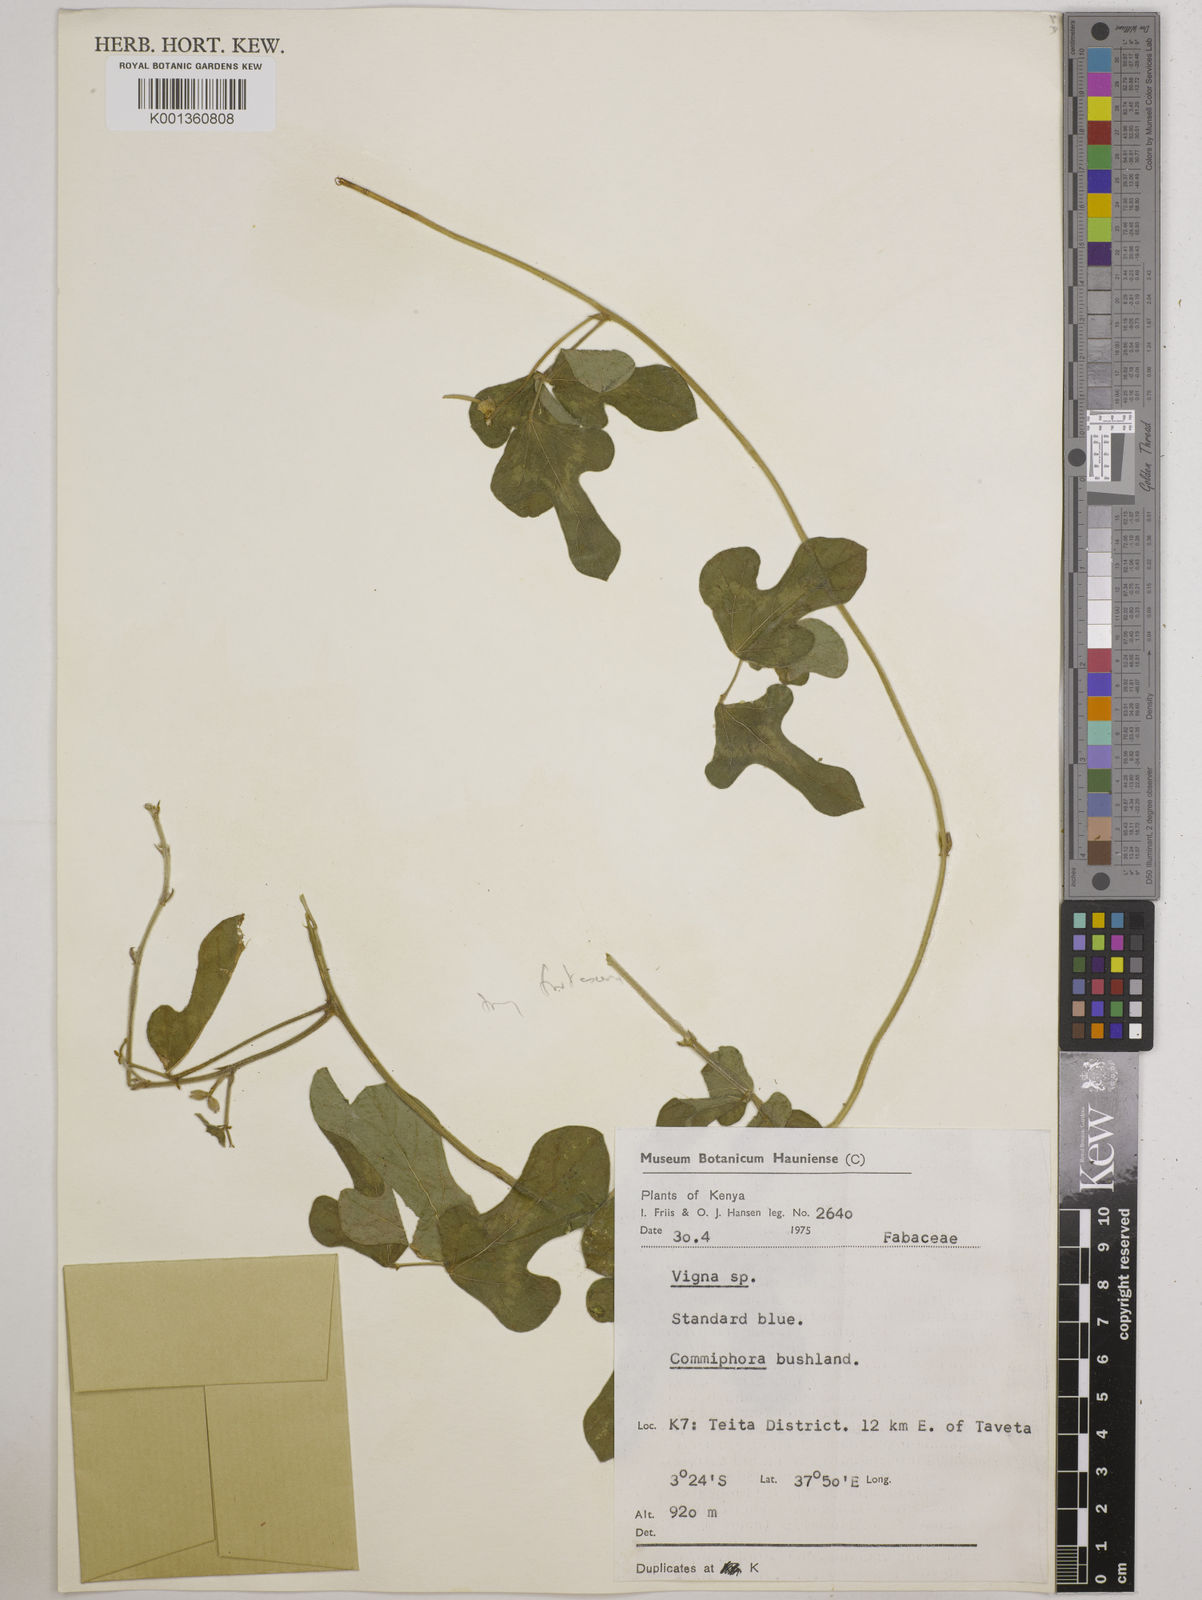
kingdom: Plantae
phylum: Tracheophyta
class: Magnoliopsida
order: Fabales
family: Fabaceae
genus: Vigna
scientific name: Vigna
